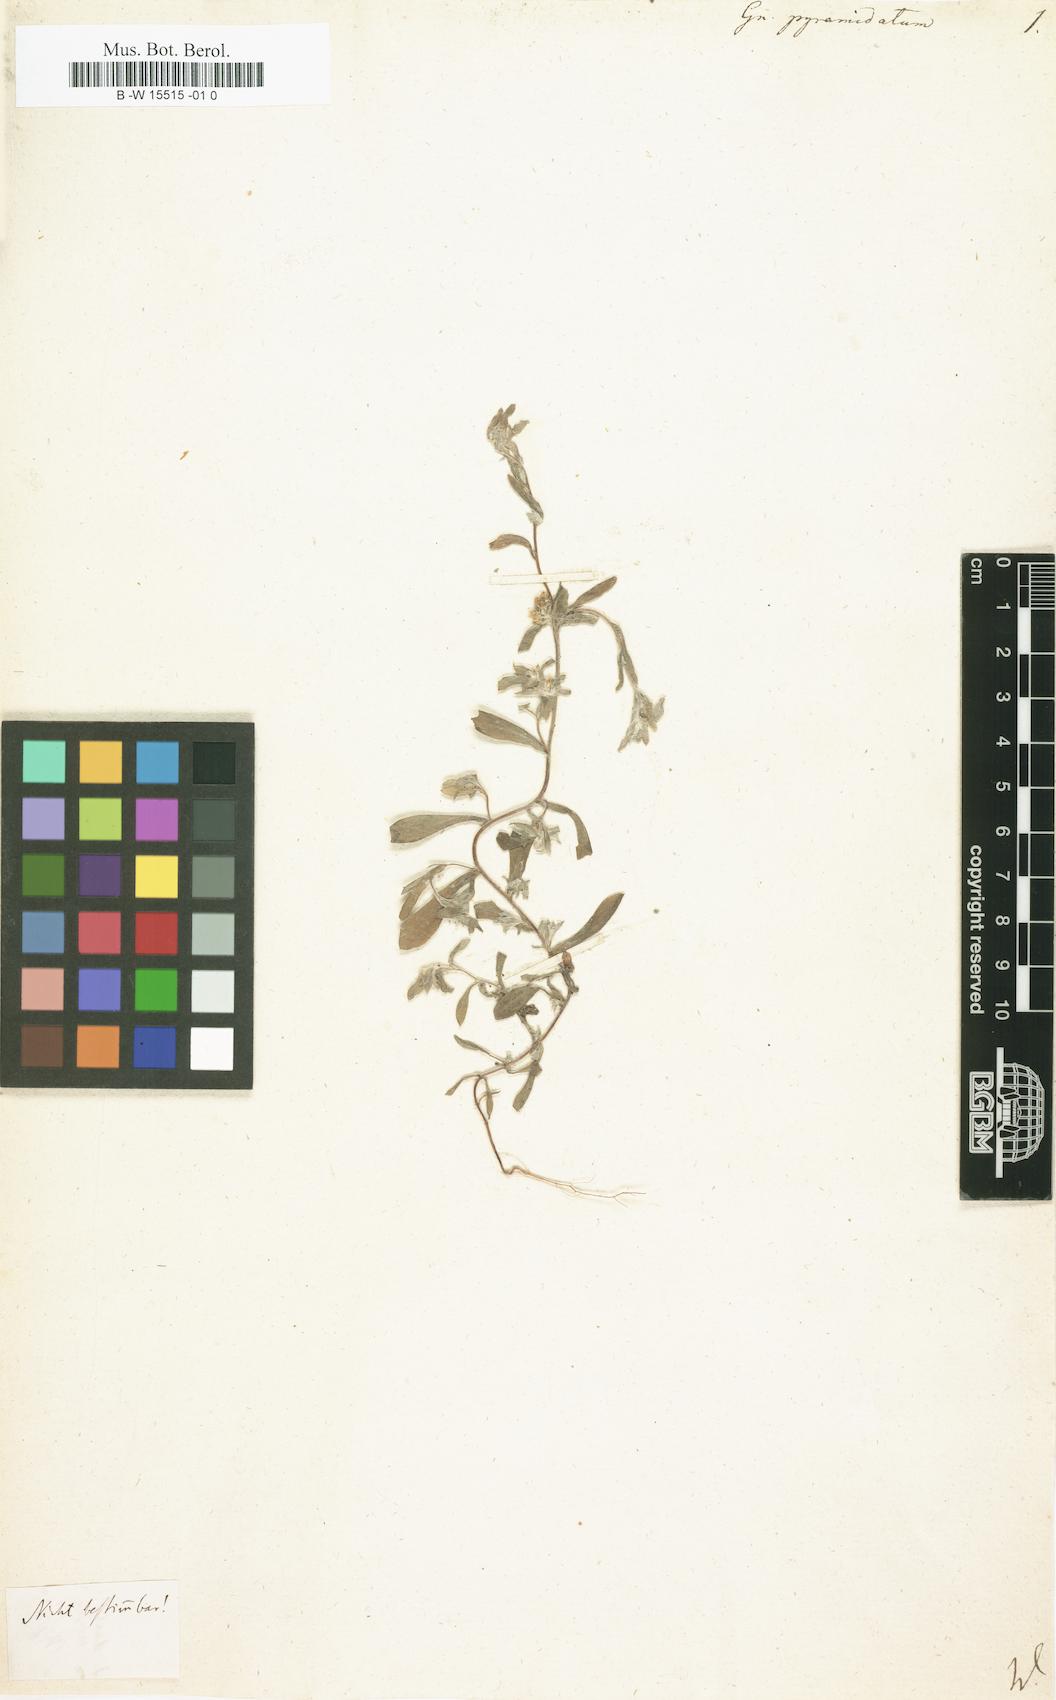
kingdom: Plantae
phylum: Tracheophyta
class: Magnoliopsida
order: Asterales
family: Asteraceae
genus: Filago
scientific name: Filago pyramidata
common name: Broad-leaved cudweed
